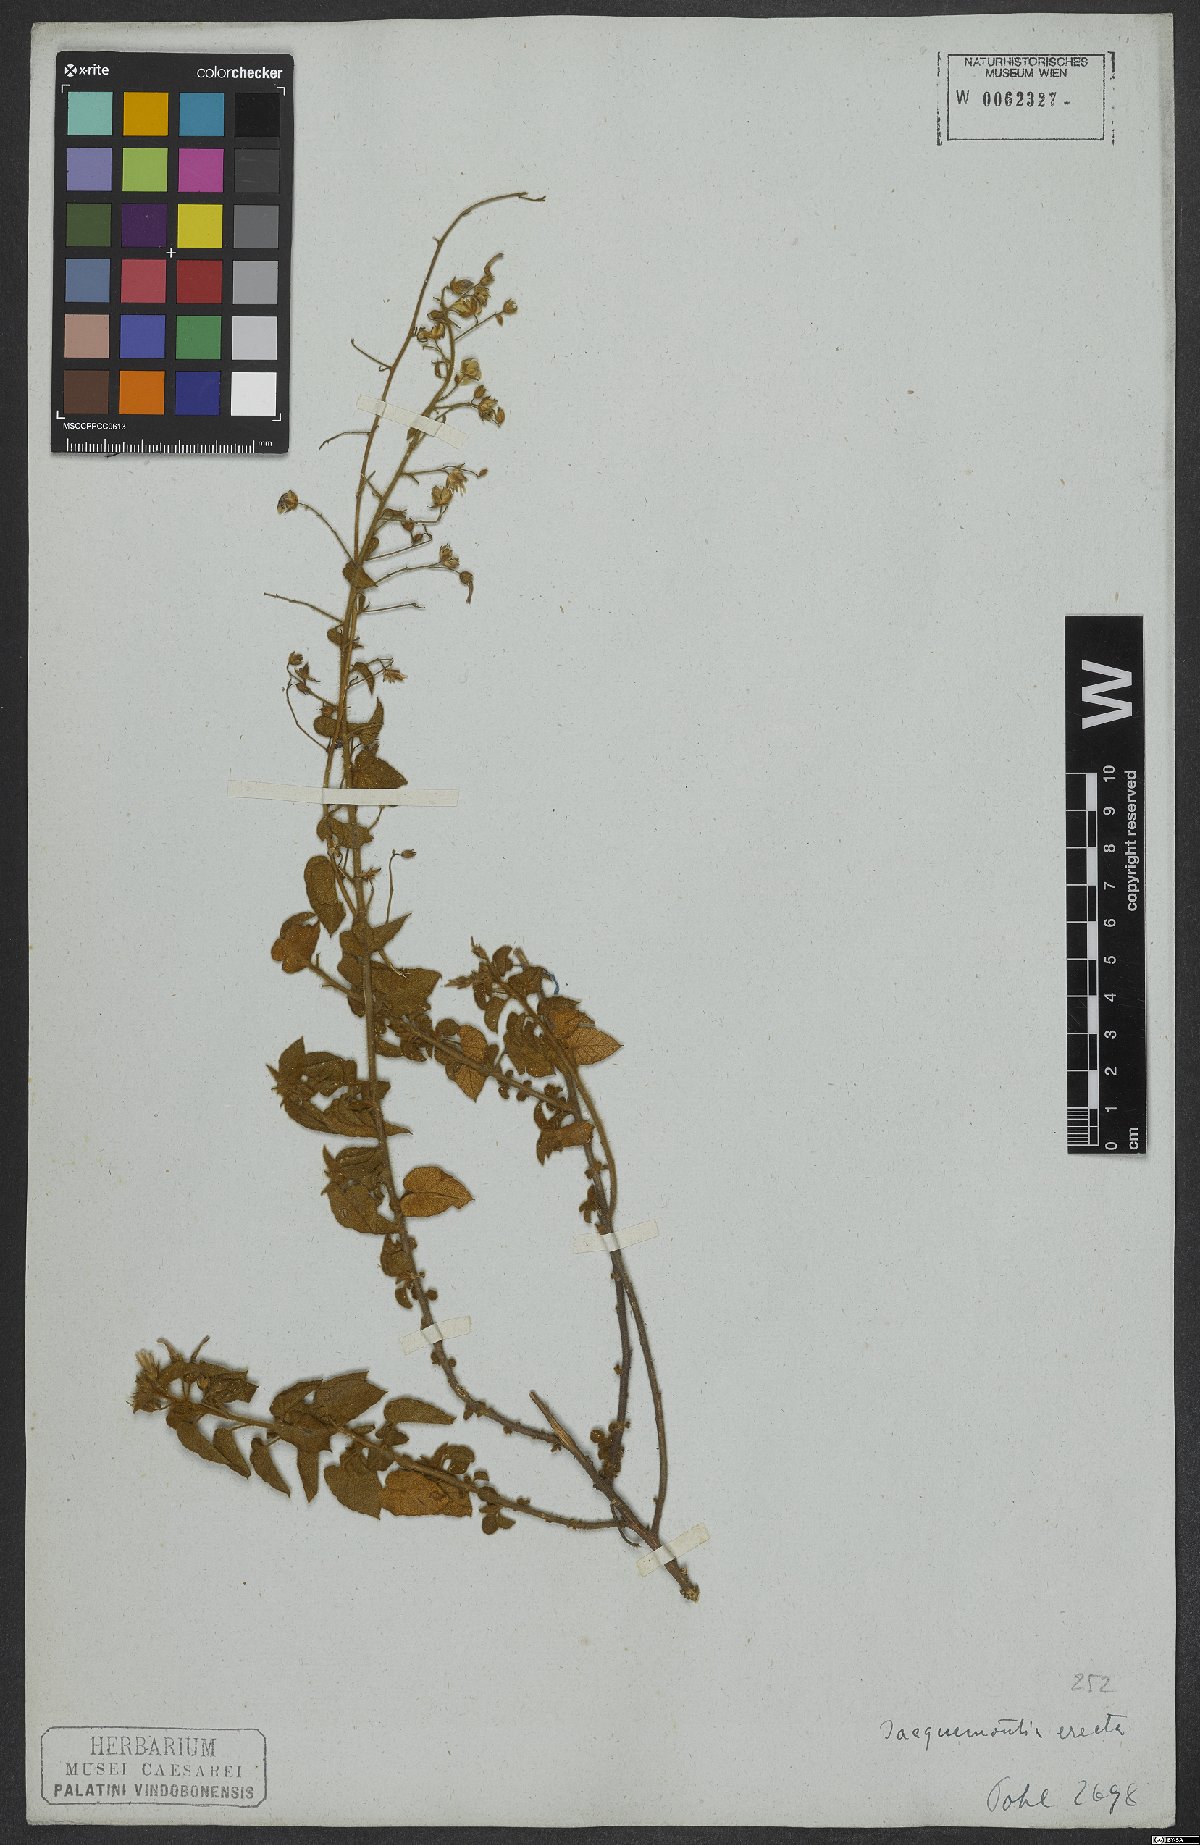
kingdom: Plantae
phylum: Tracheophyta
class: Magnoliopsida
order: Solanales
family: Convolvulaceae
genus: Jacquemontia
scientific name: Jacquemontia evolvuloides
